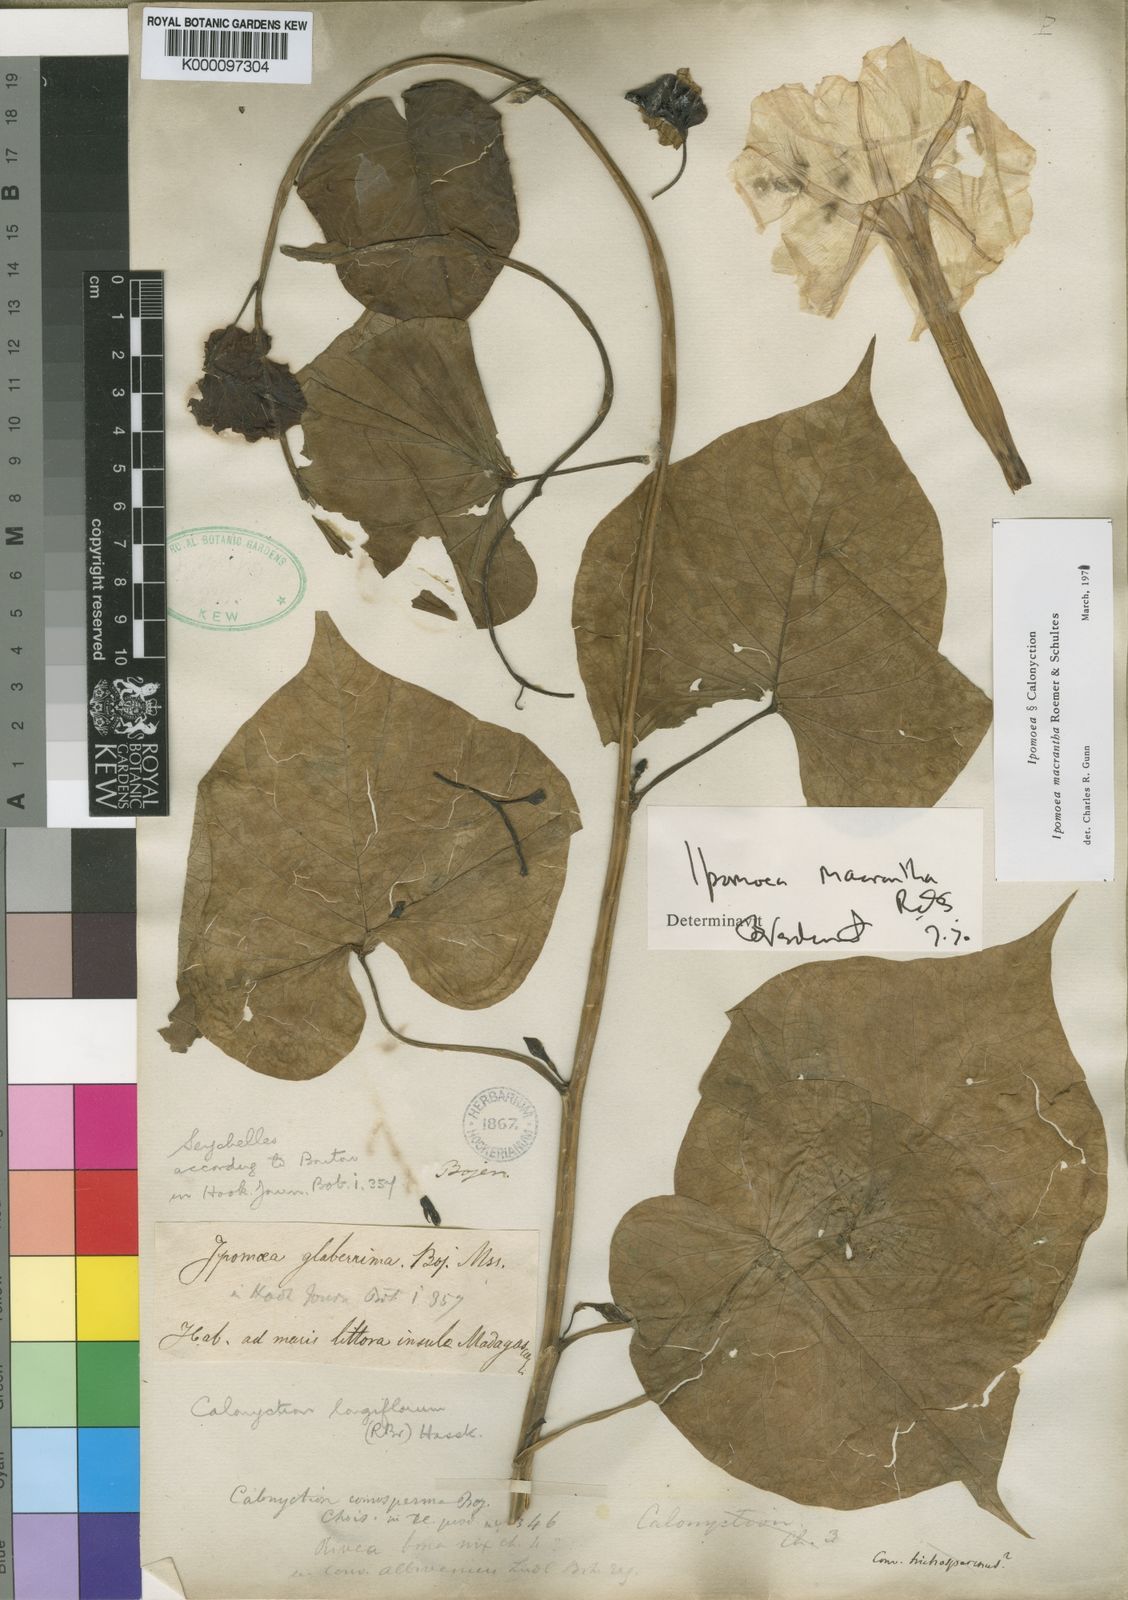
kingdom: Plantae
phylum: Tracheophyta
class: Magnoliopsida
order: Solanales
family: Convolvulaceae
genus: Ipomoea
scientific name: Ipomoea violacea
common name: Beach moonflower
